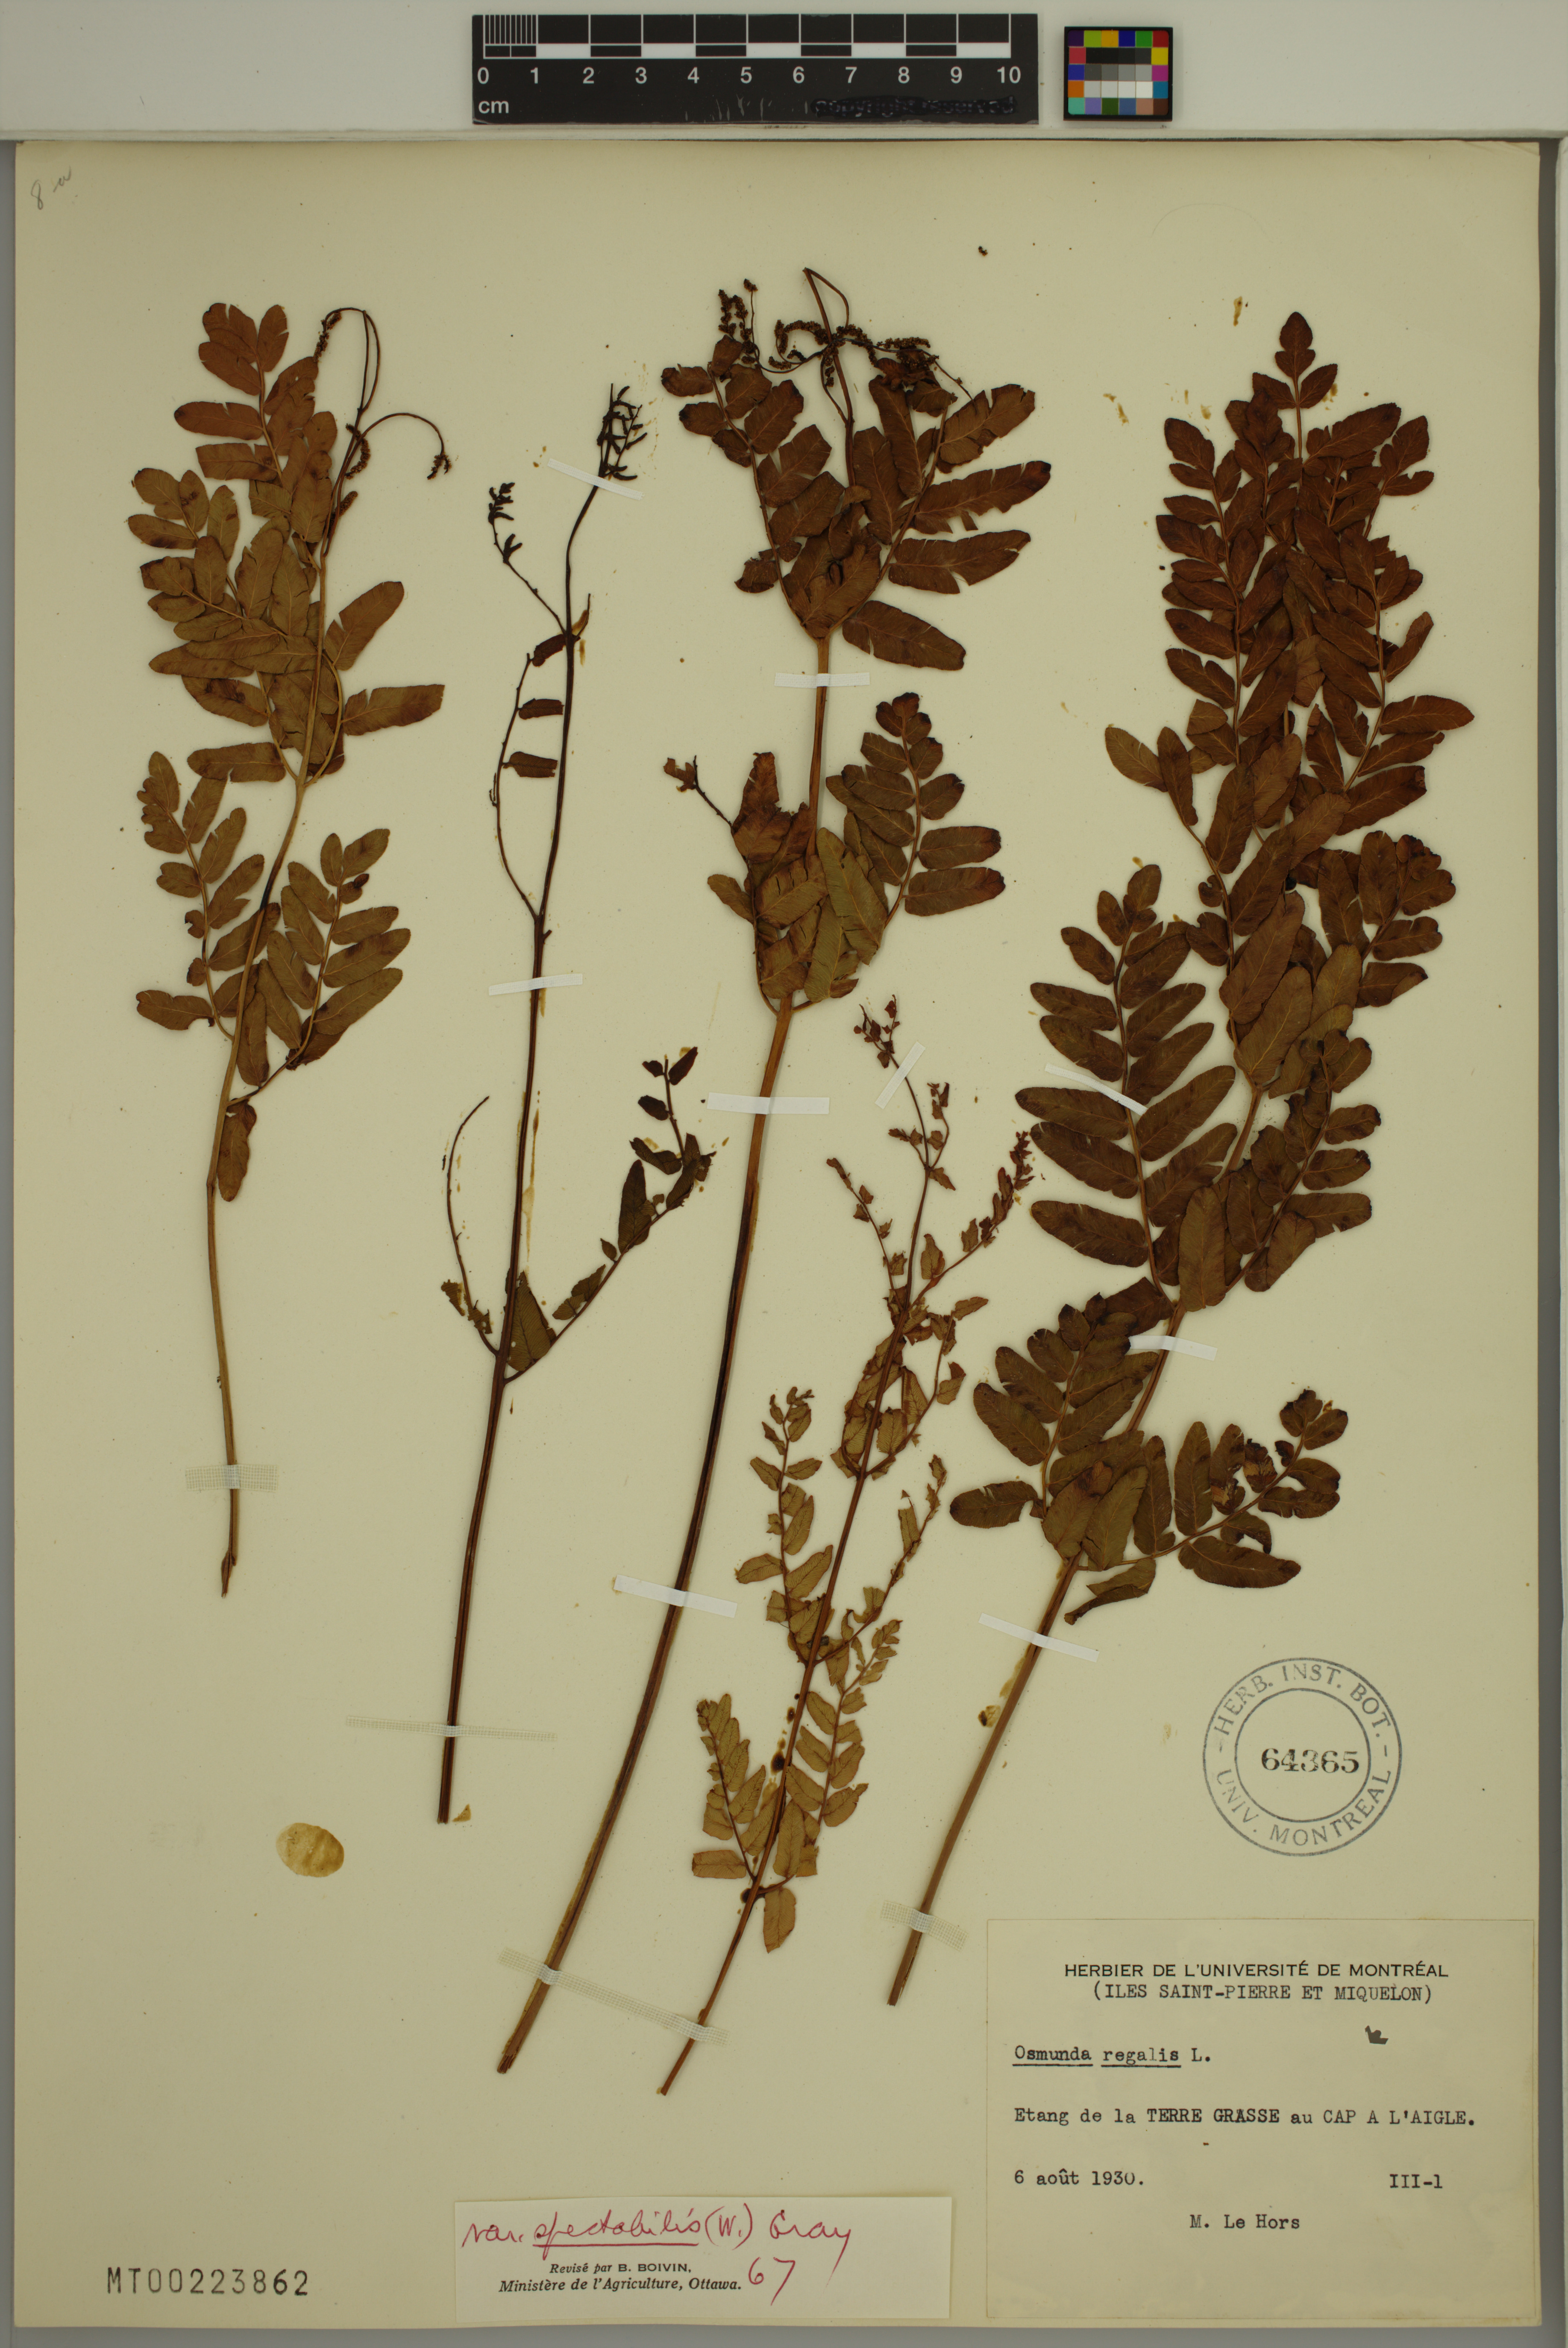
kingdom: Plantae
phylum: Tracheophyta
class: Polypodiopsida
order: Osmundales
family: Osmundaceae
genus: Osmunda
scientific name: Osmunda spectabilis
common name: American royal fern
